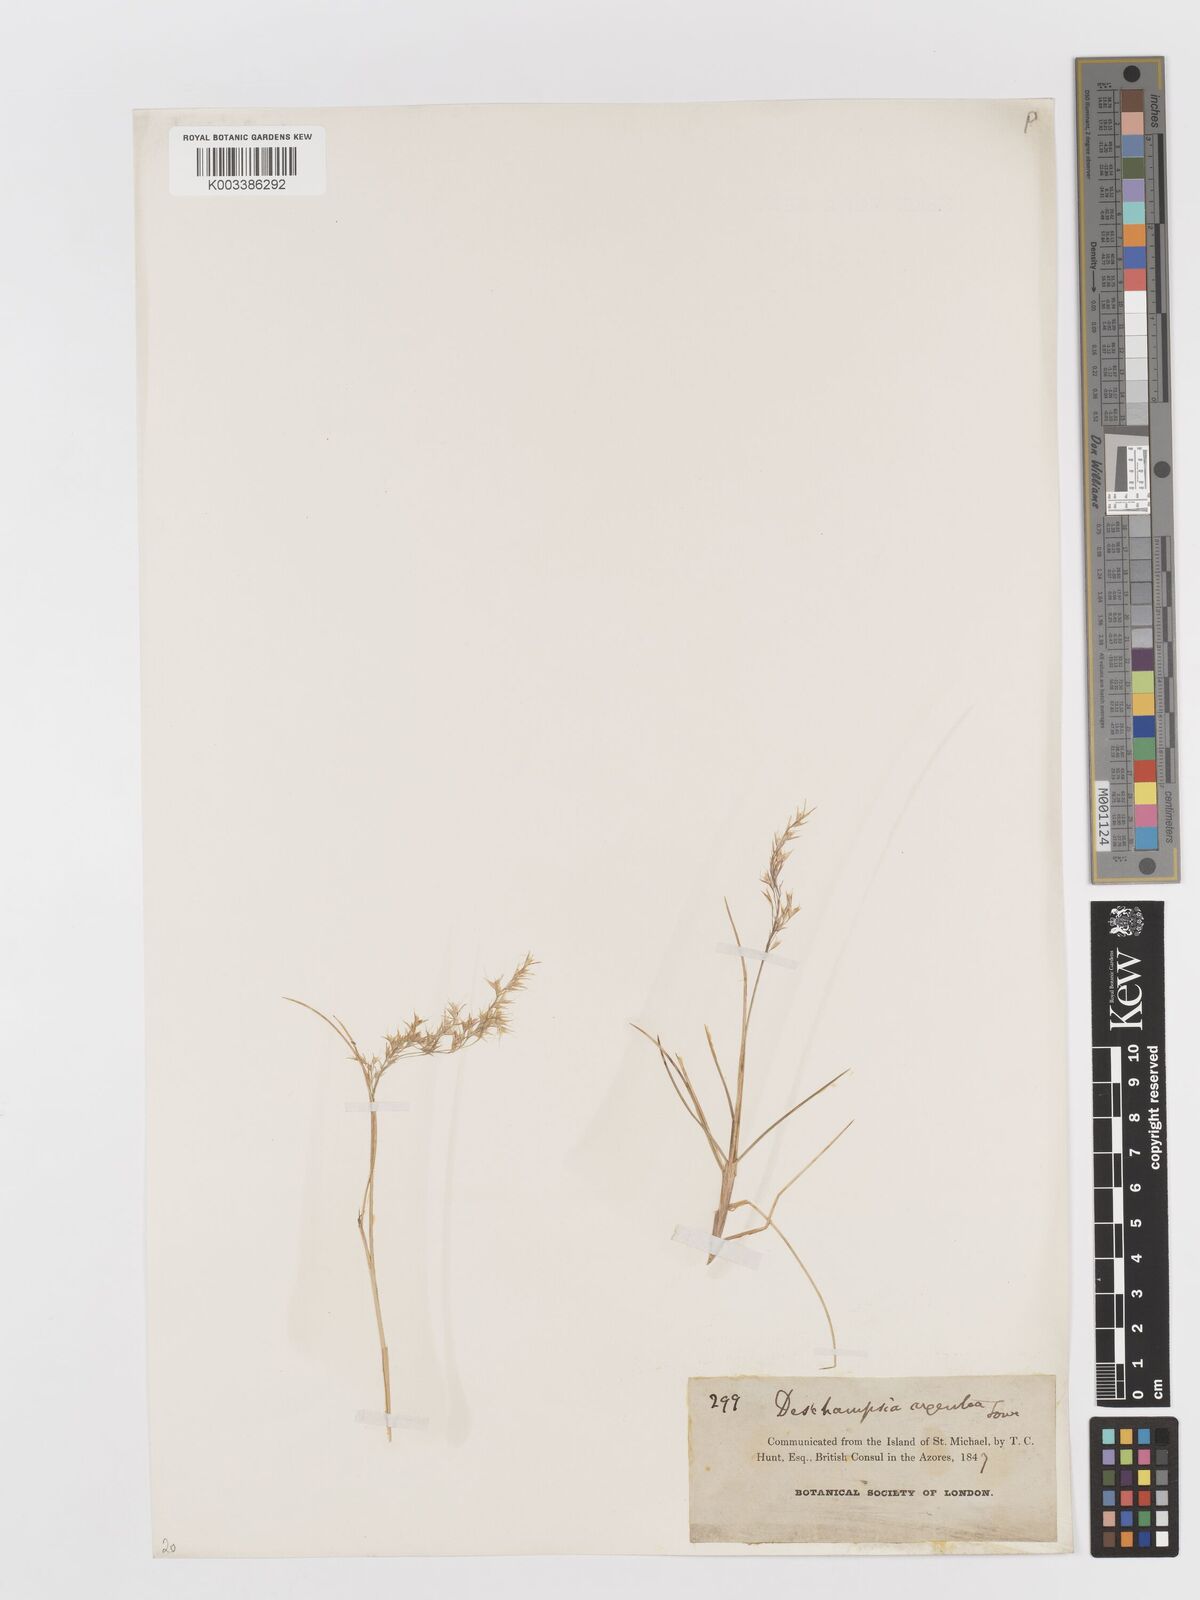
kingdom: Plantae
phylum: Tracheophyta
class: Liliopsida
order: Poales
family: Poaceae
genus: Avenella
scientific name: Avenella foliosa
